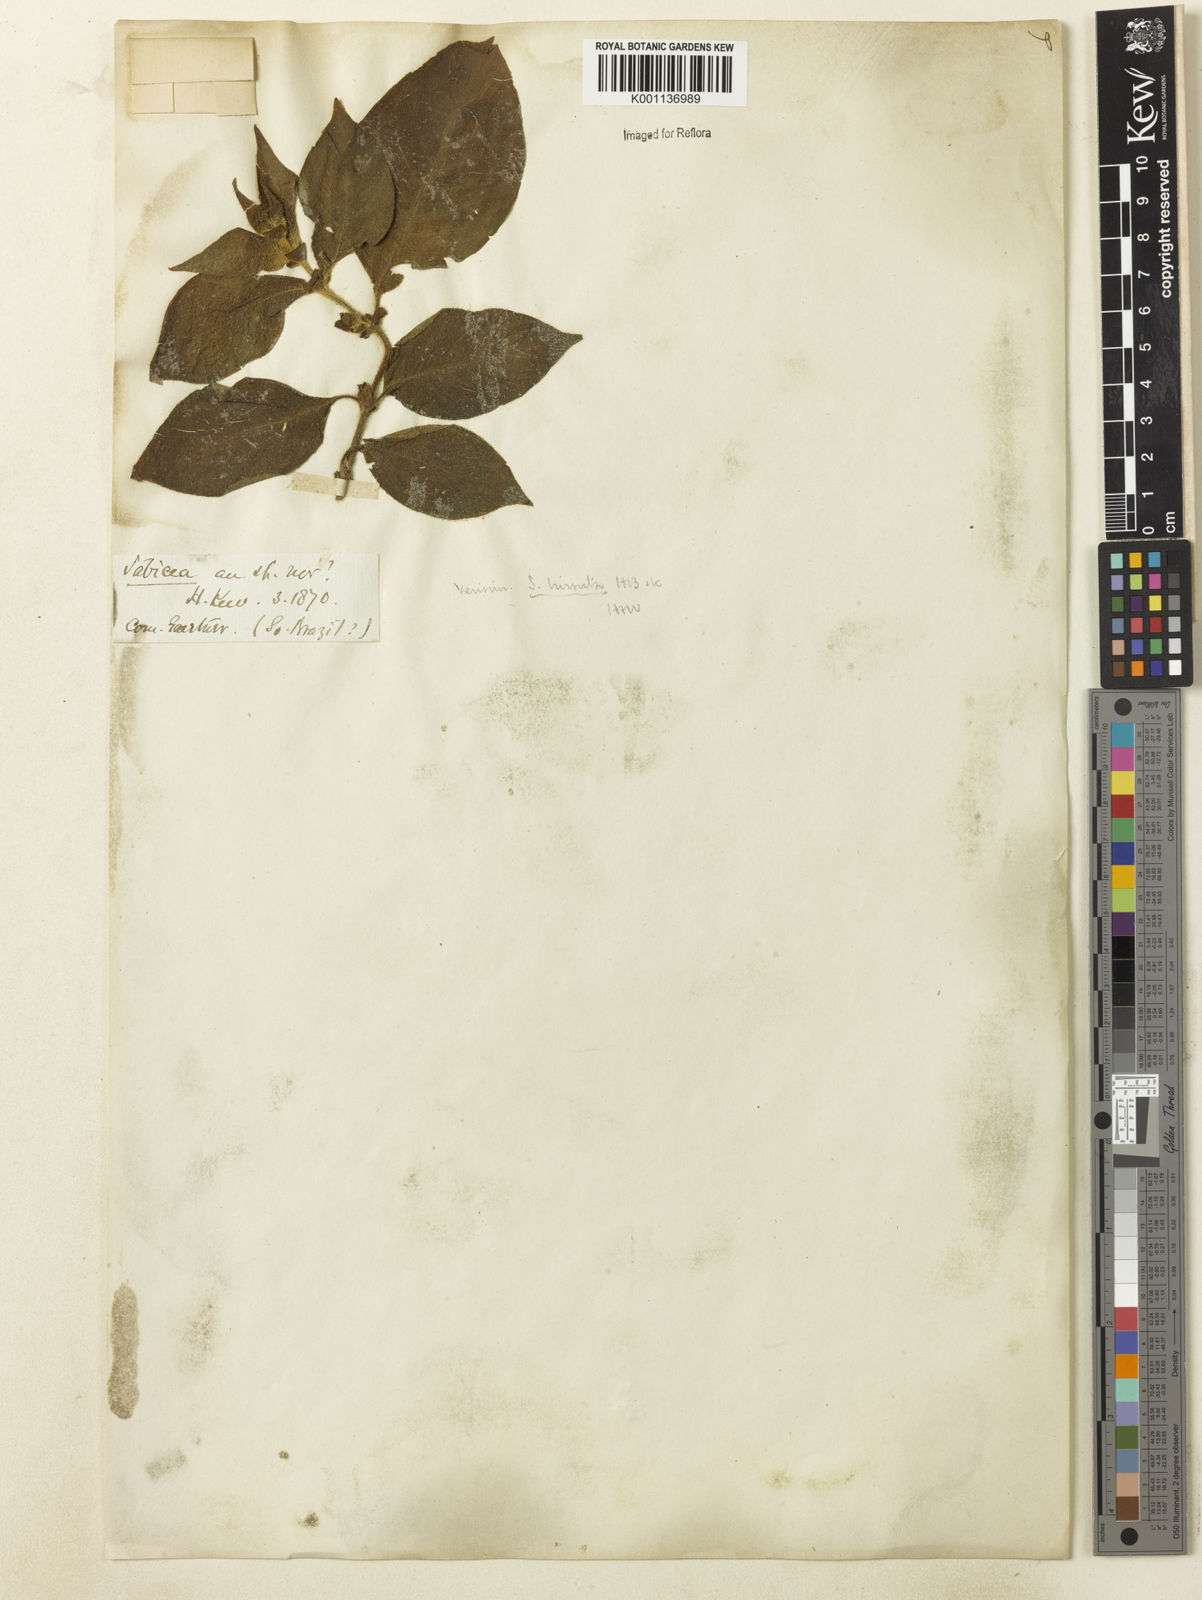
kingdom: Plantae
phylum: Tracheophyta
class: Magnoliopsida
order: Gentianales
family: Rubiaceae
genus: Sabicea
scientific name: Sabicea villosa
